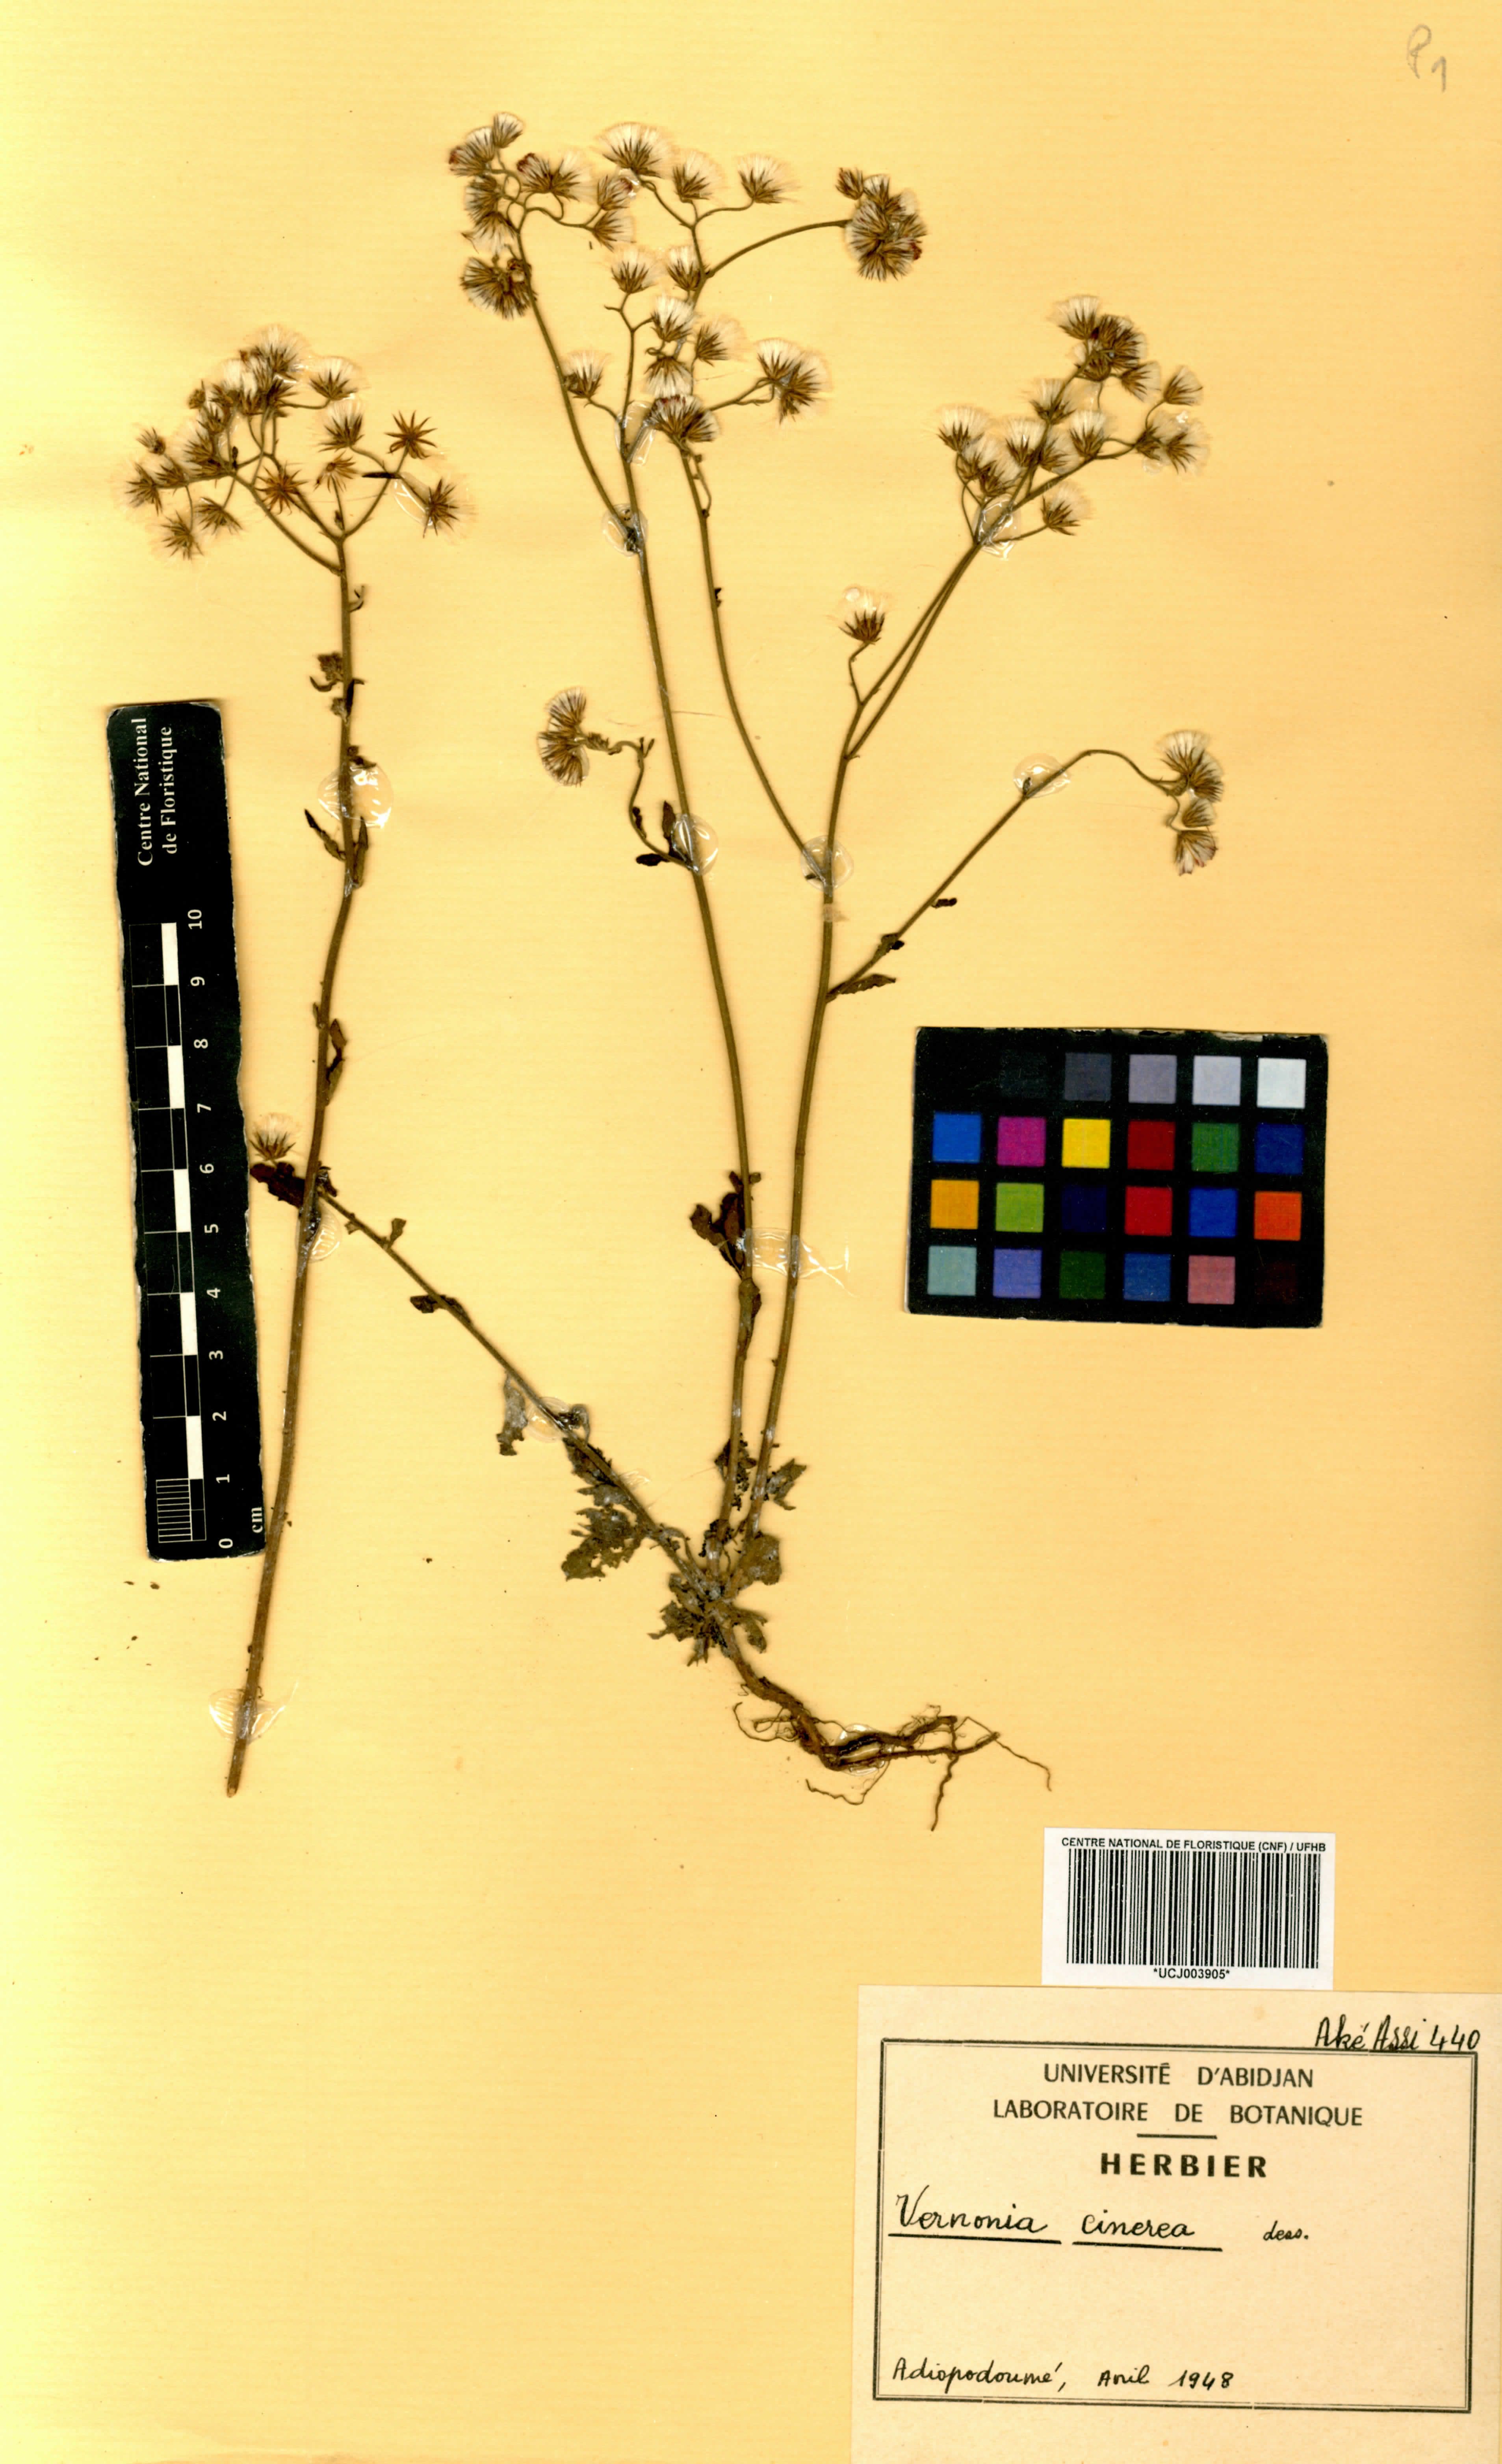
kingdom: Plantae
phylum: Tracheophyta
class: Magnoliopsida
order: Asterales
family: Asteraceae
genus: Cyanthillium
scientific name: Cyanthillium cinereum
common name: Little ironweed
